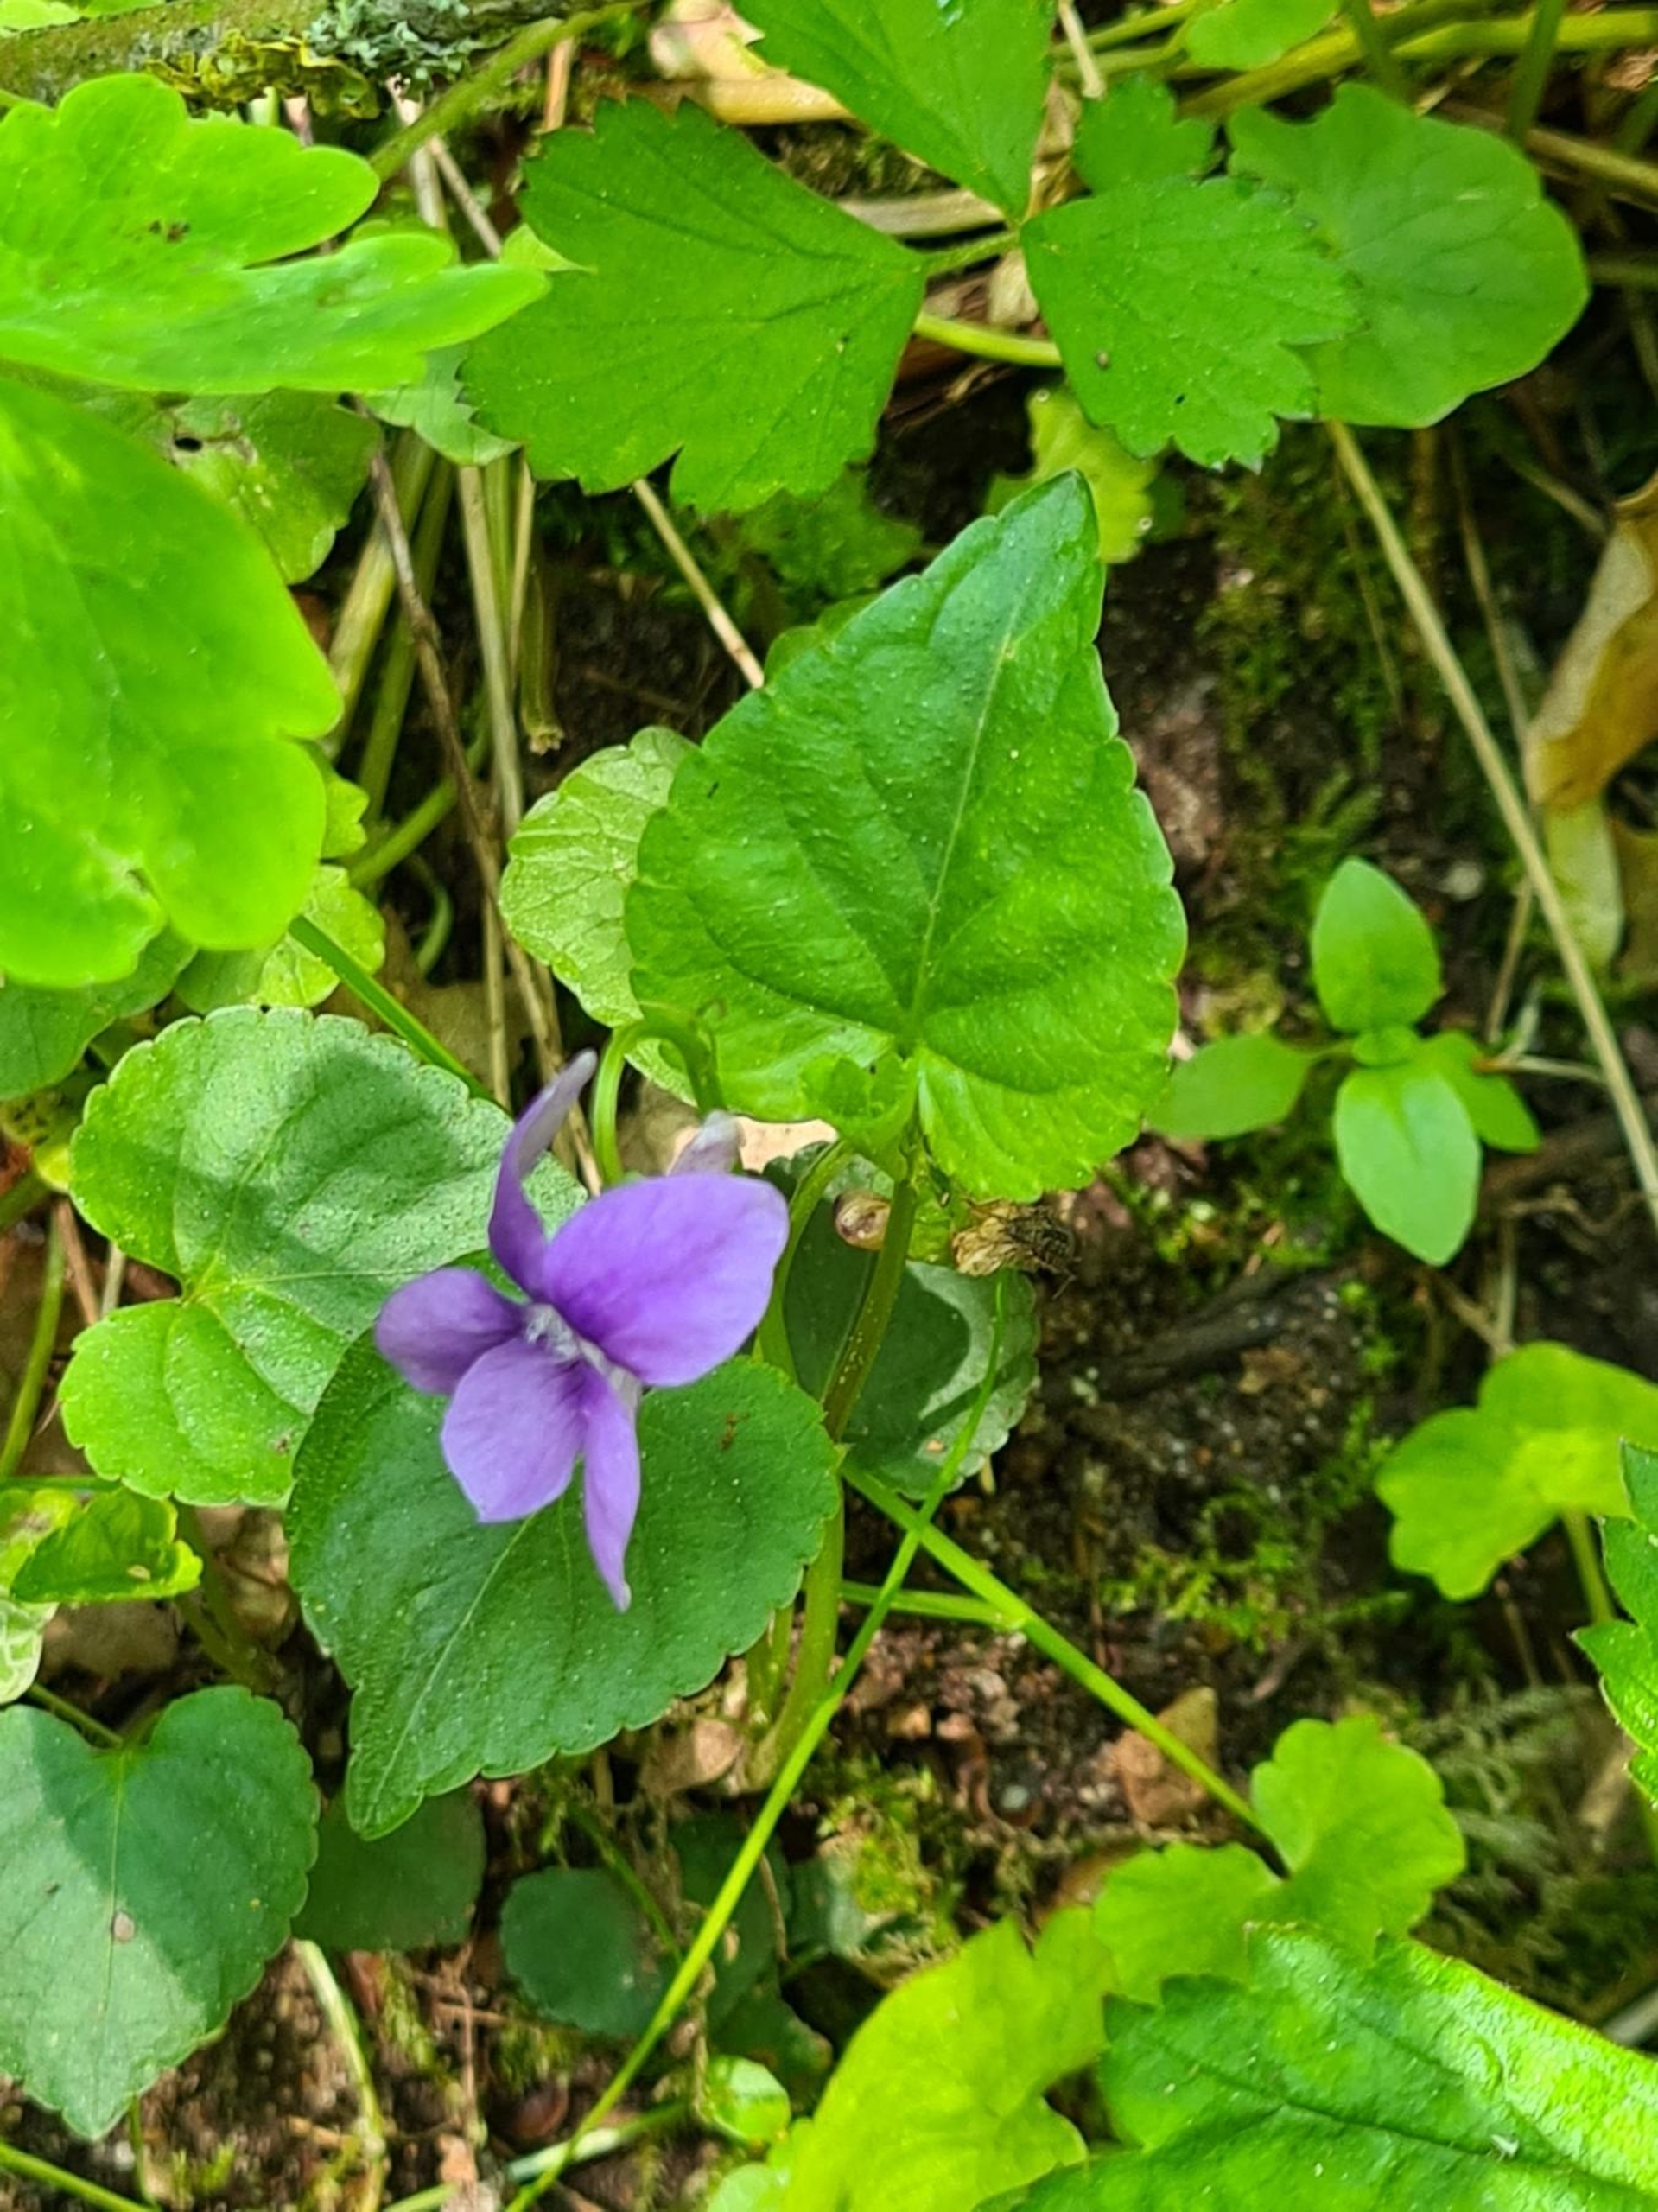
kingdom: Plantae
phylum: Tracheophyta
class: Magnoliopsida
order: Malpighiales
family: Violaceae
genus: Viola
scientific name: Viola reichenbachiana
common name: Skov-viol
